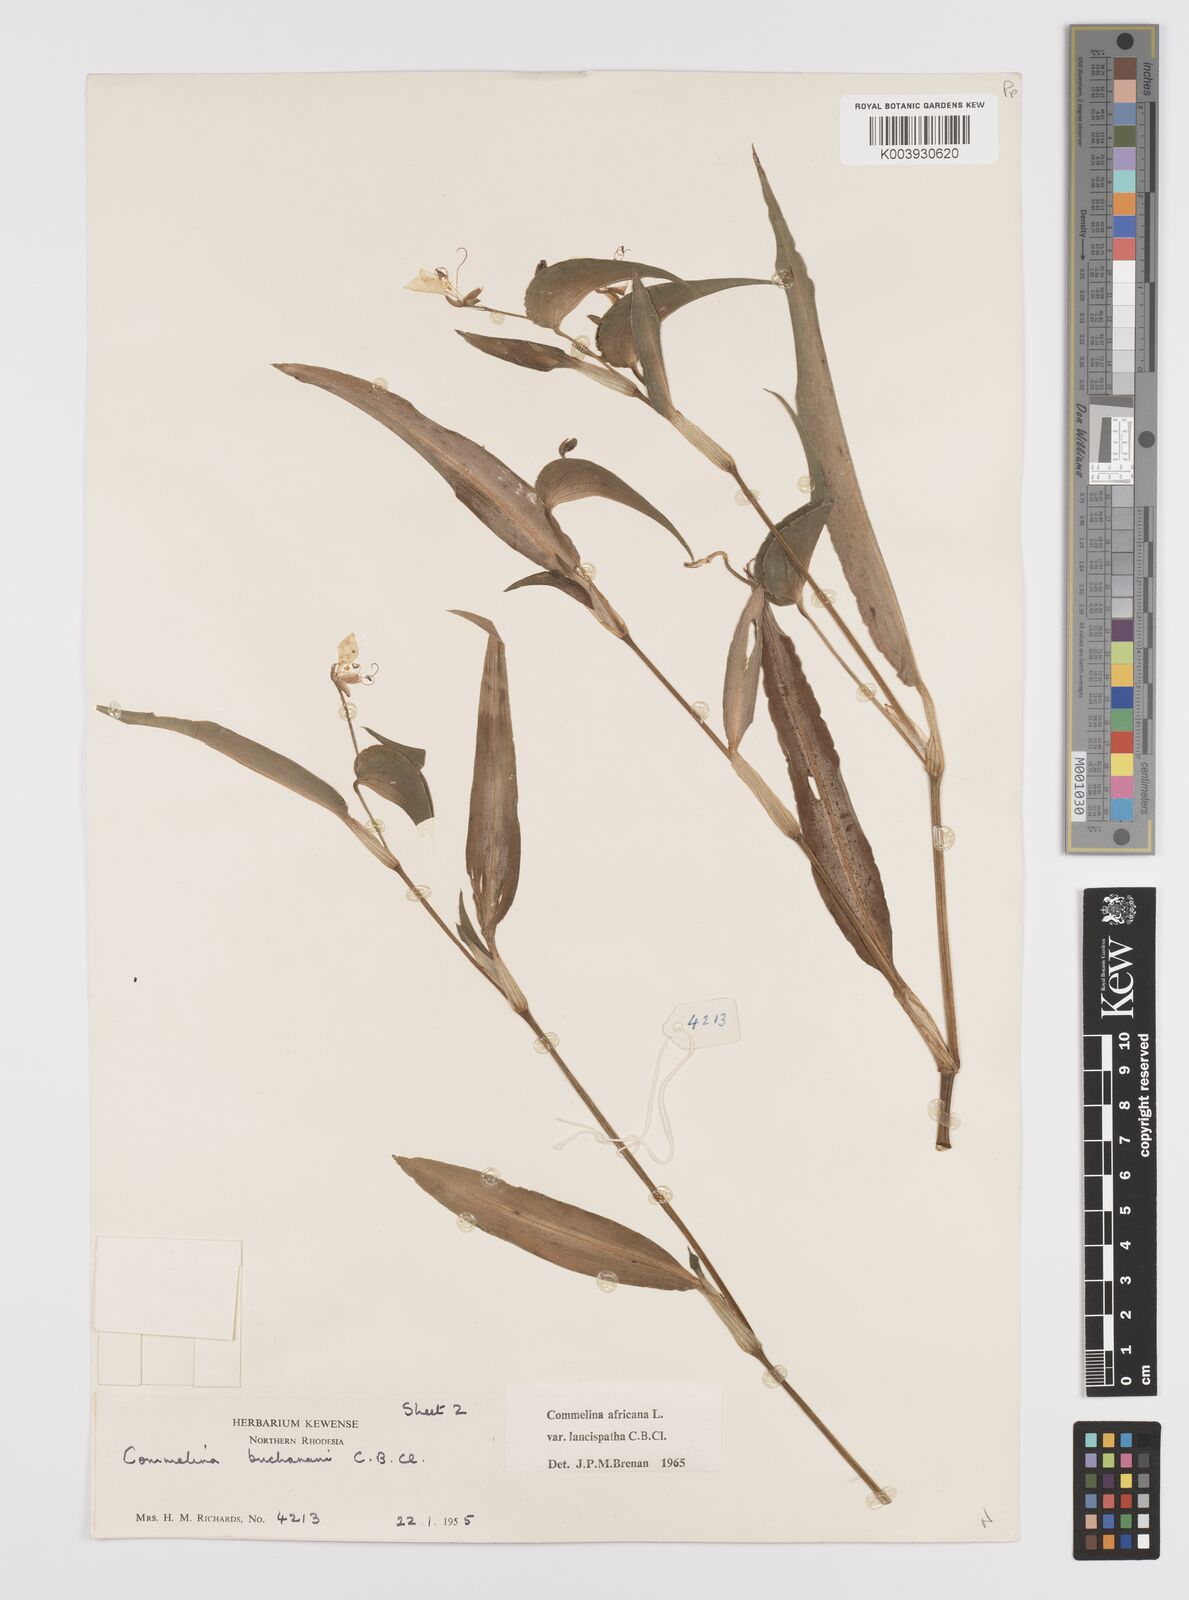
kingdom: Plantae
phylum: Tracheophyta
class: Liliopsida
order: Commelinales
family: Commelinaceae
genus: Commelina
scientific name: Commelina africana
